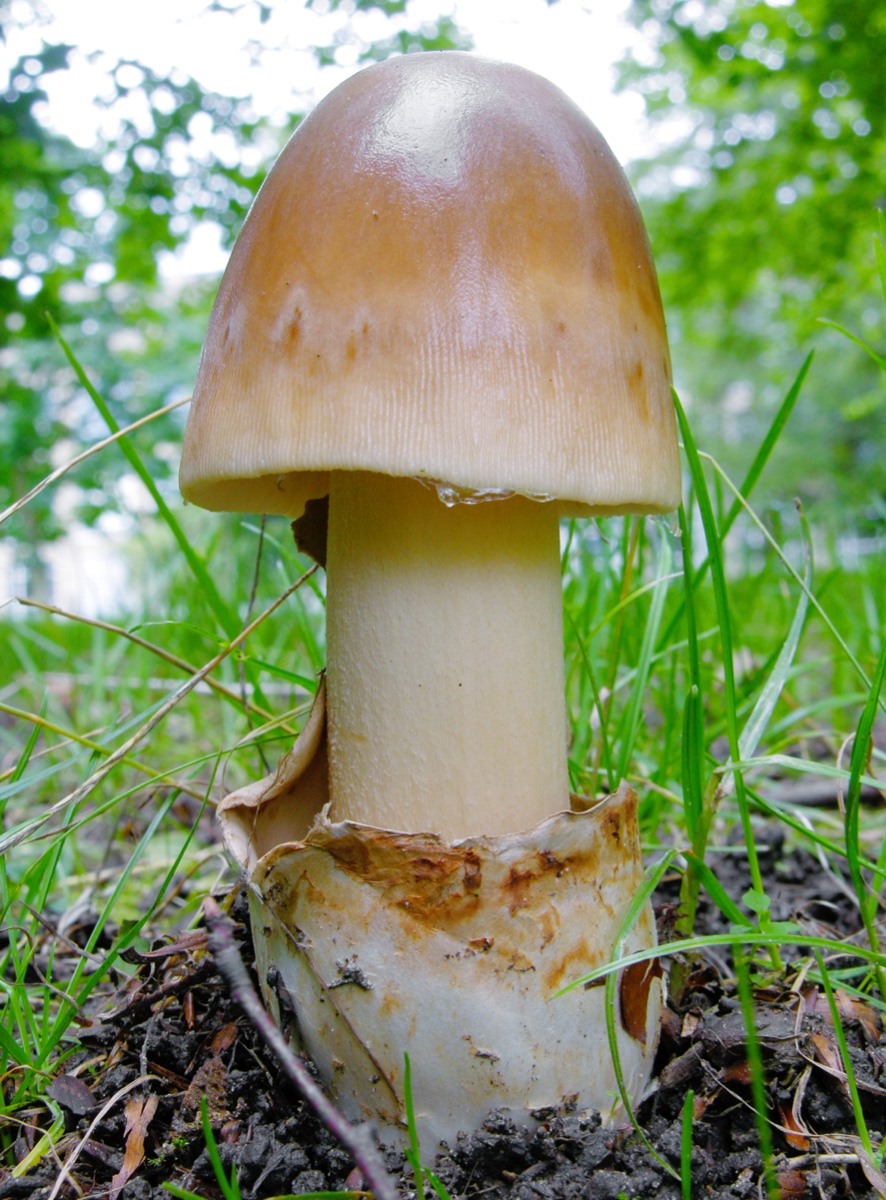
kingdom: Fungi
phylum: Basidiomycota
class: Agaricomycetes
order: Agaricales
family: Amanitaceae
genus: Amanita
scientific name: Amanita battarrae
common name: zoneret kam-fluesvamp
